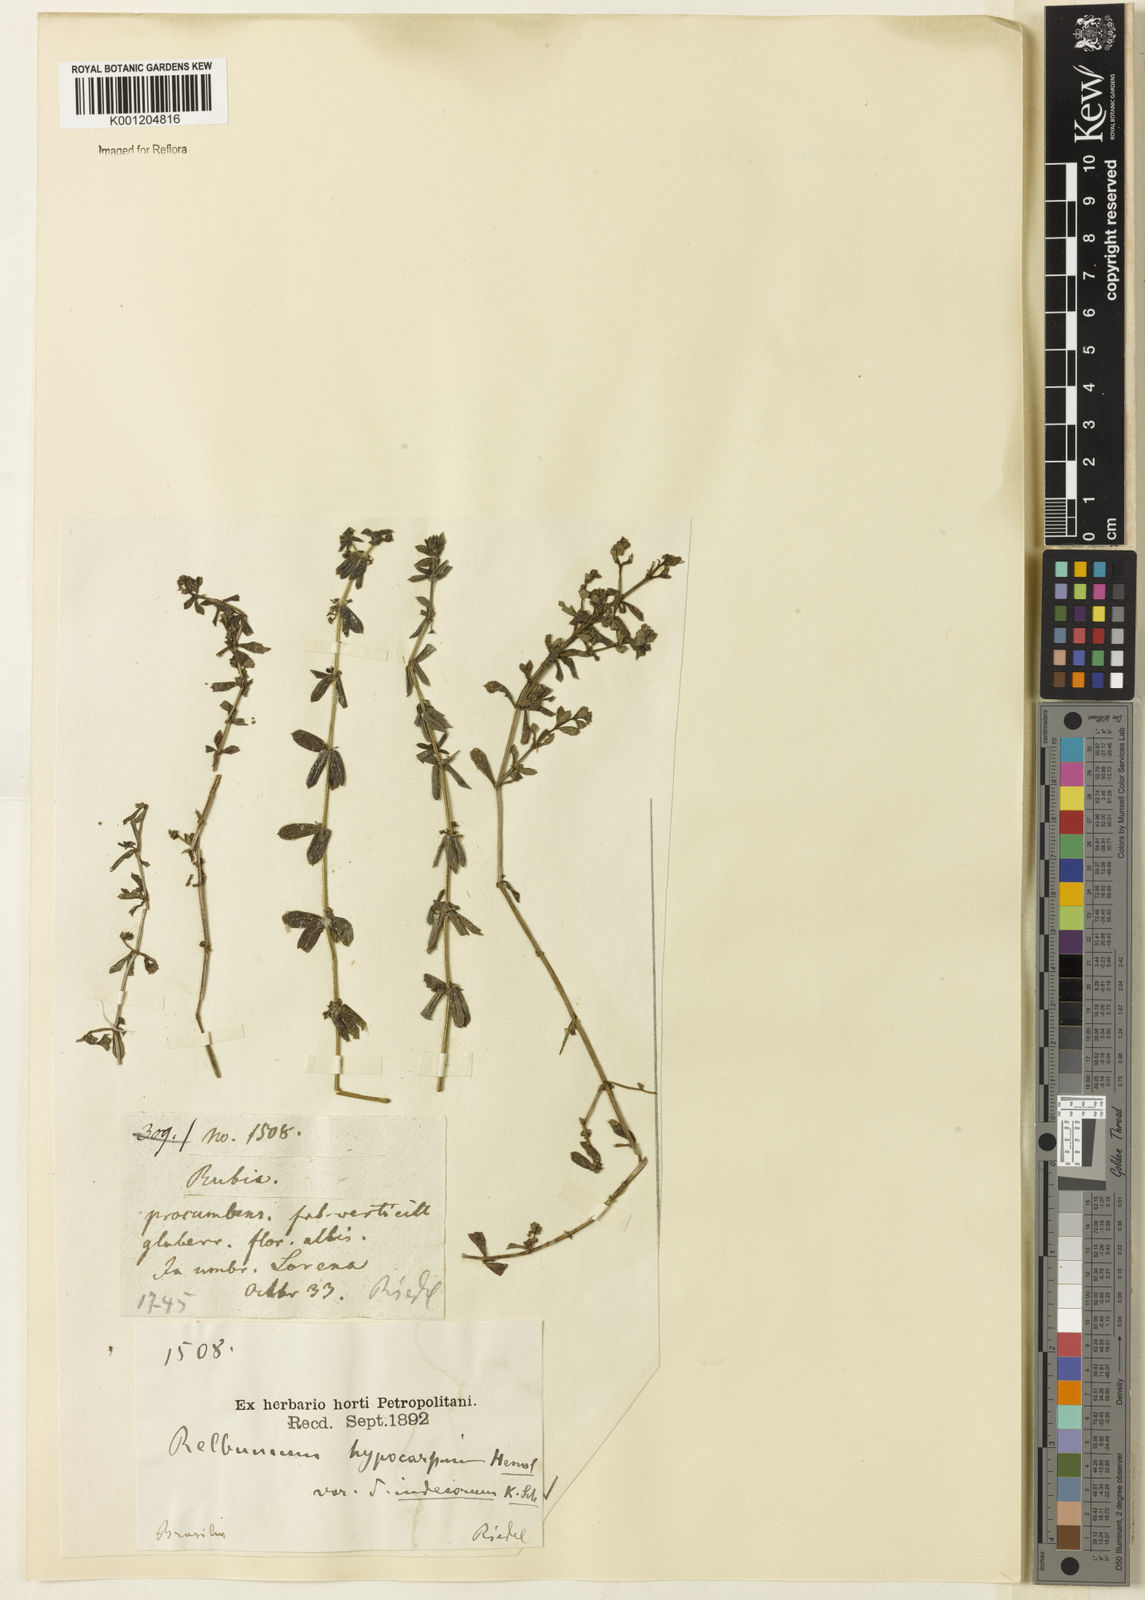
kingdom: Plantae
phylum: Tracheophyta
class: Magnoliopsida
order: Gentianales
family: Rubiaceae
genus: Galium
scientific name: Galium hypocarpium
